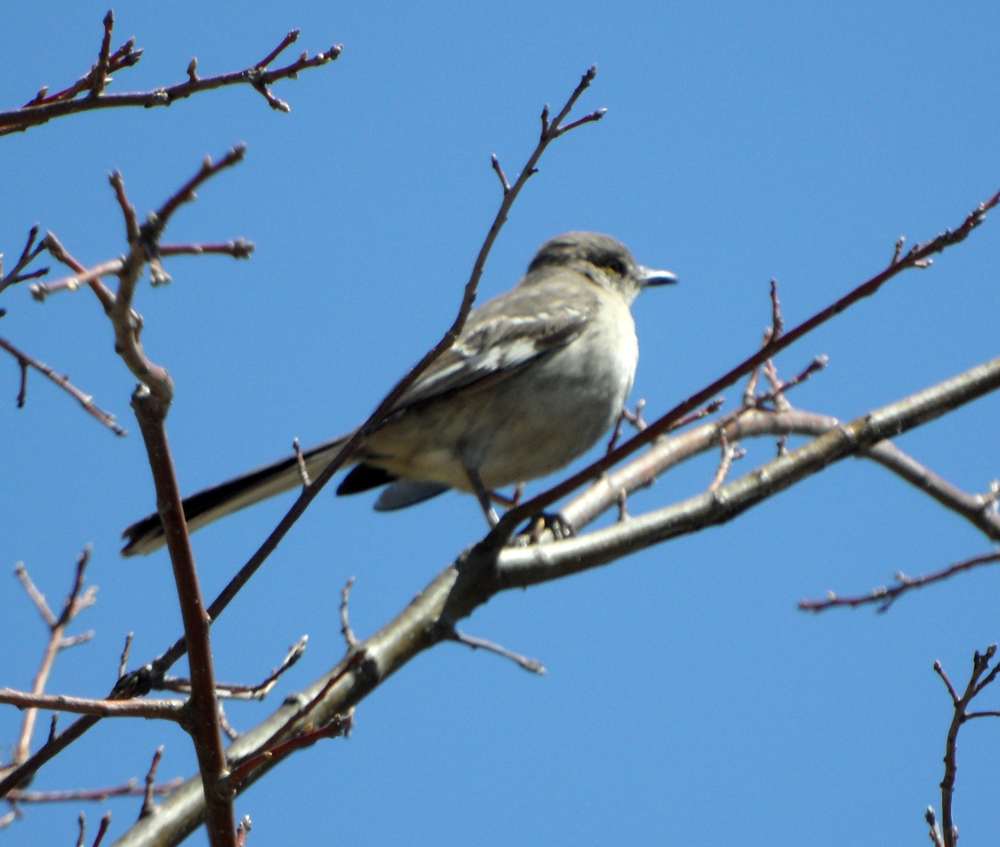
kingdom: Animalia
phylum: Chordata
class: Aves
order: Passeriformes
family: Mimidae
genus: Mimus
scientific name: Mimus polyglottos
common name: Northern mockingbird
